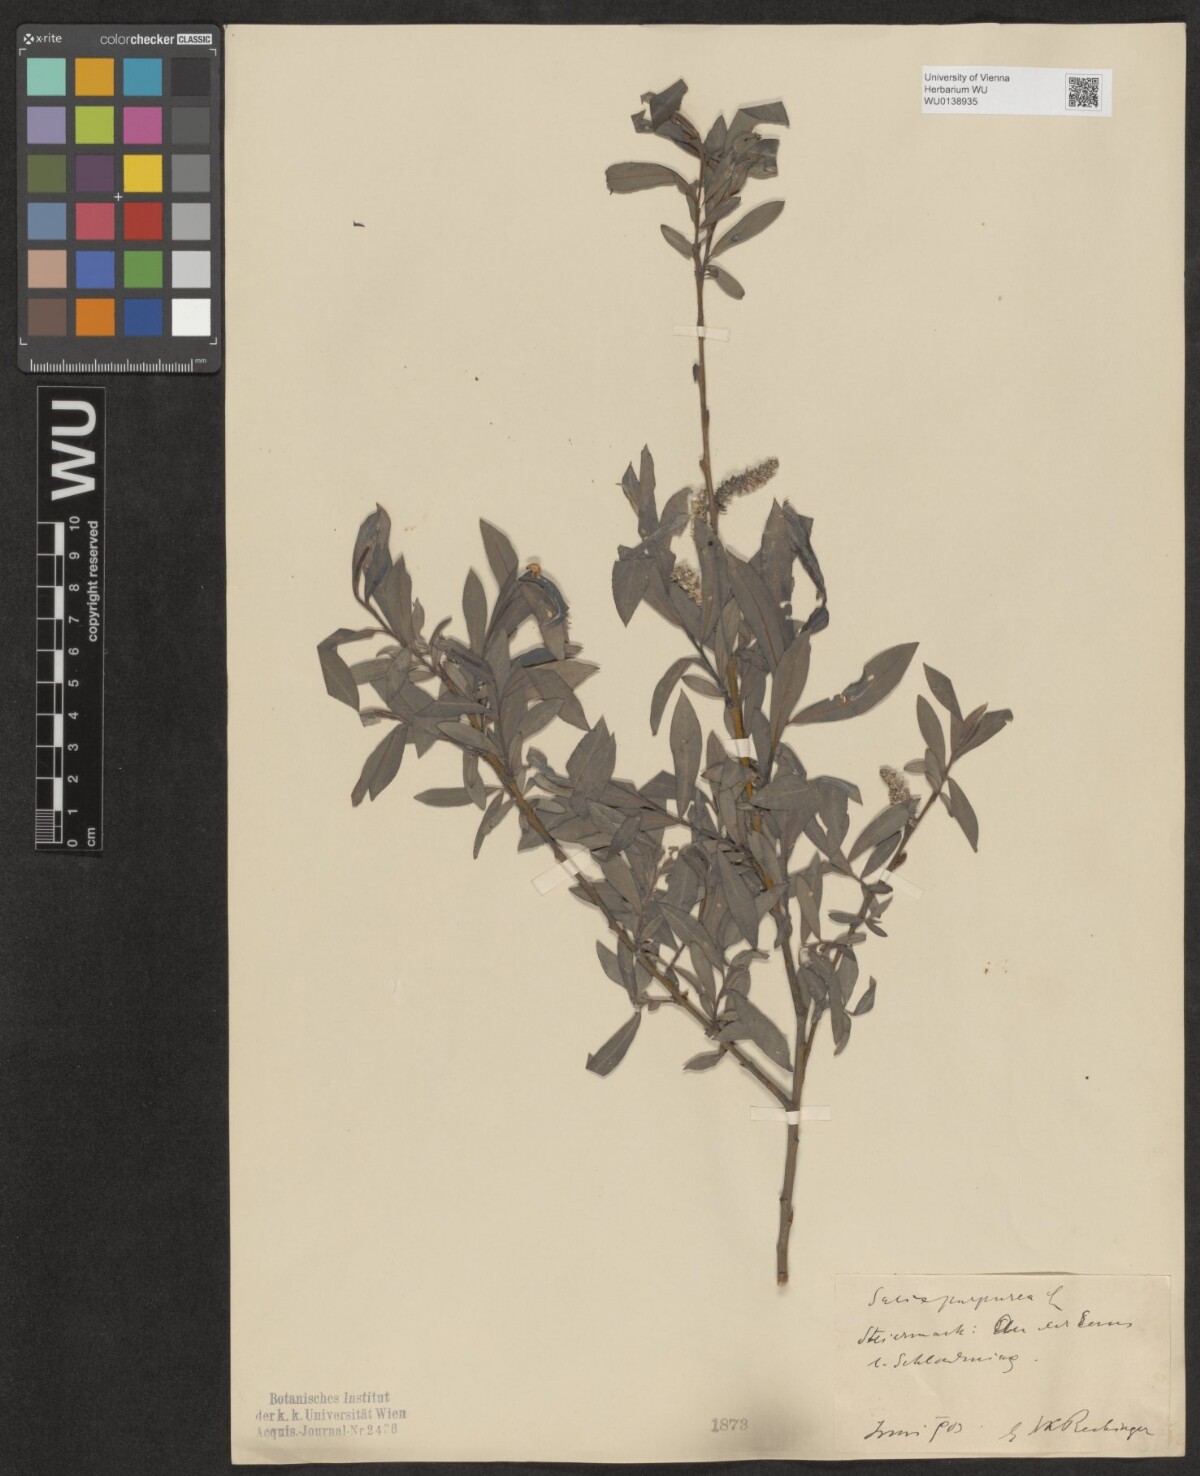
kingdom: Plantae
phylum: Tracheophyta
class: Magnoliopsida
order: Malpighiales
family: Salicaceae
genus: Salix
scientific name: Salix purpurea
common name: Purple willow
